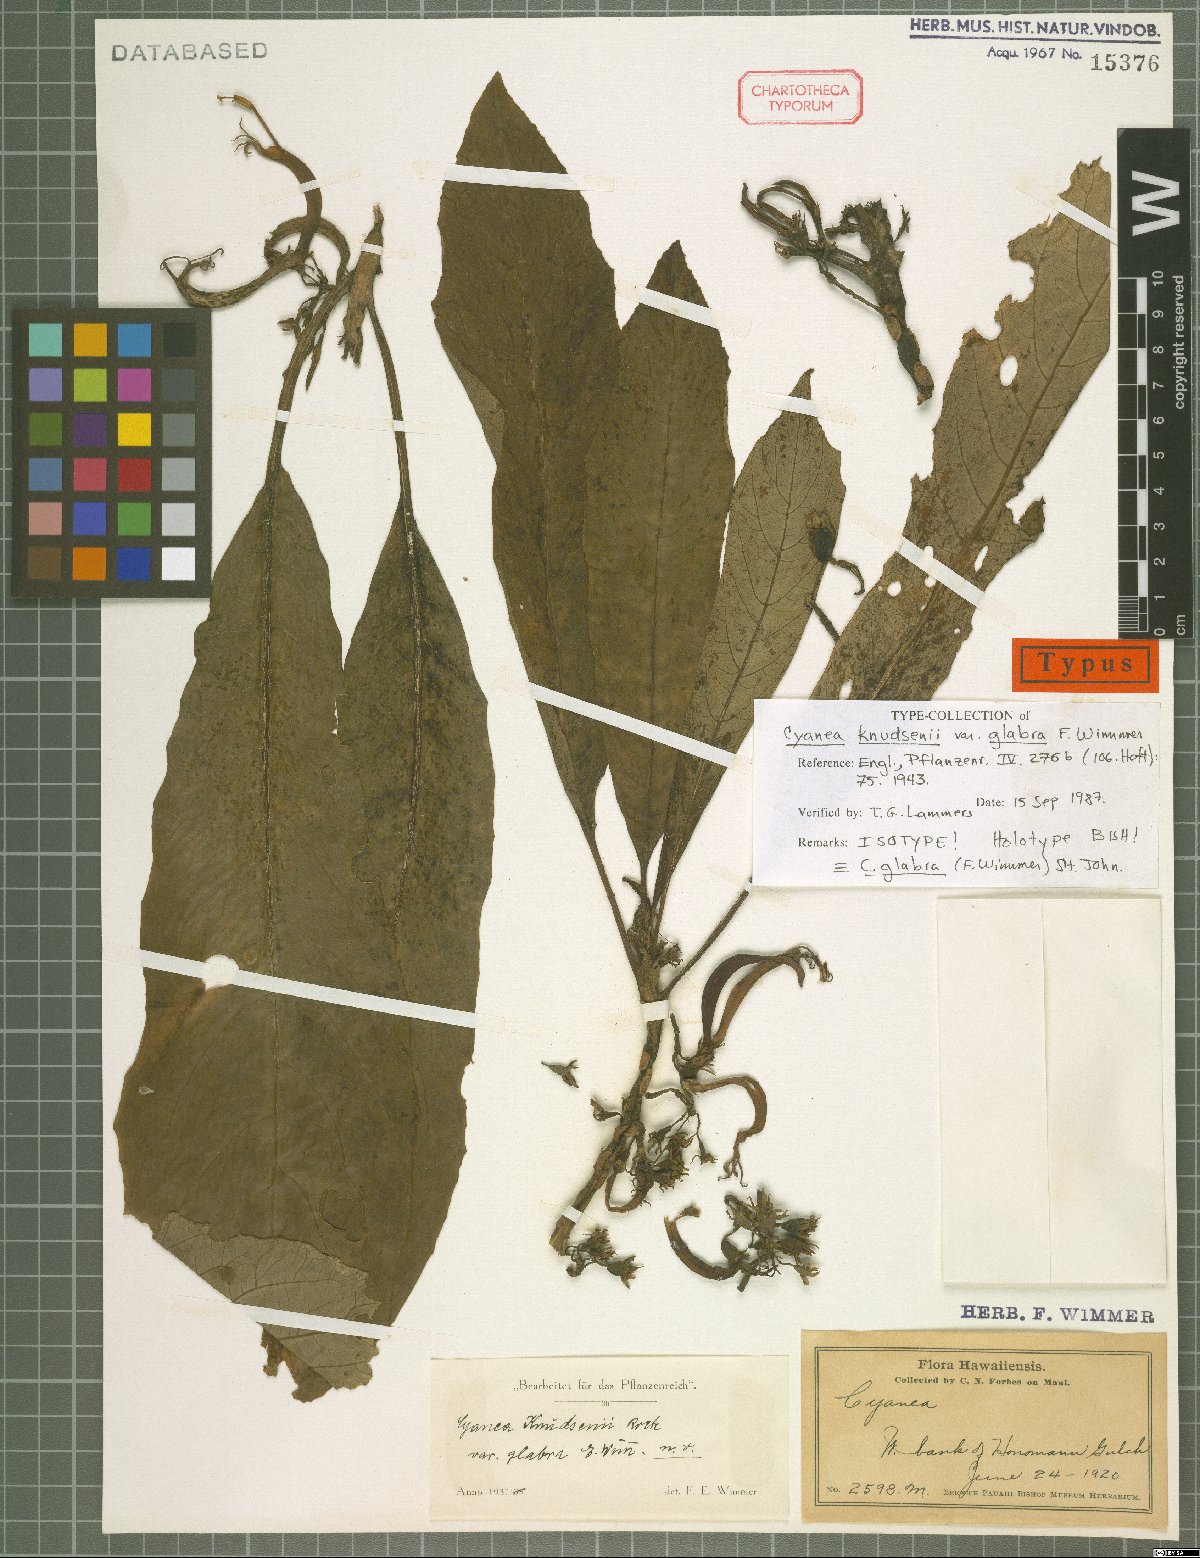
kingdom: Plantae
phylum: Tracheophyta
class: Magnoliopsida
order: Asterales
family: Campanulaceae
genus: Cyanea
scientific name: Cyanea glabra
